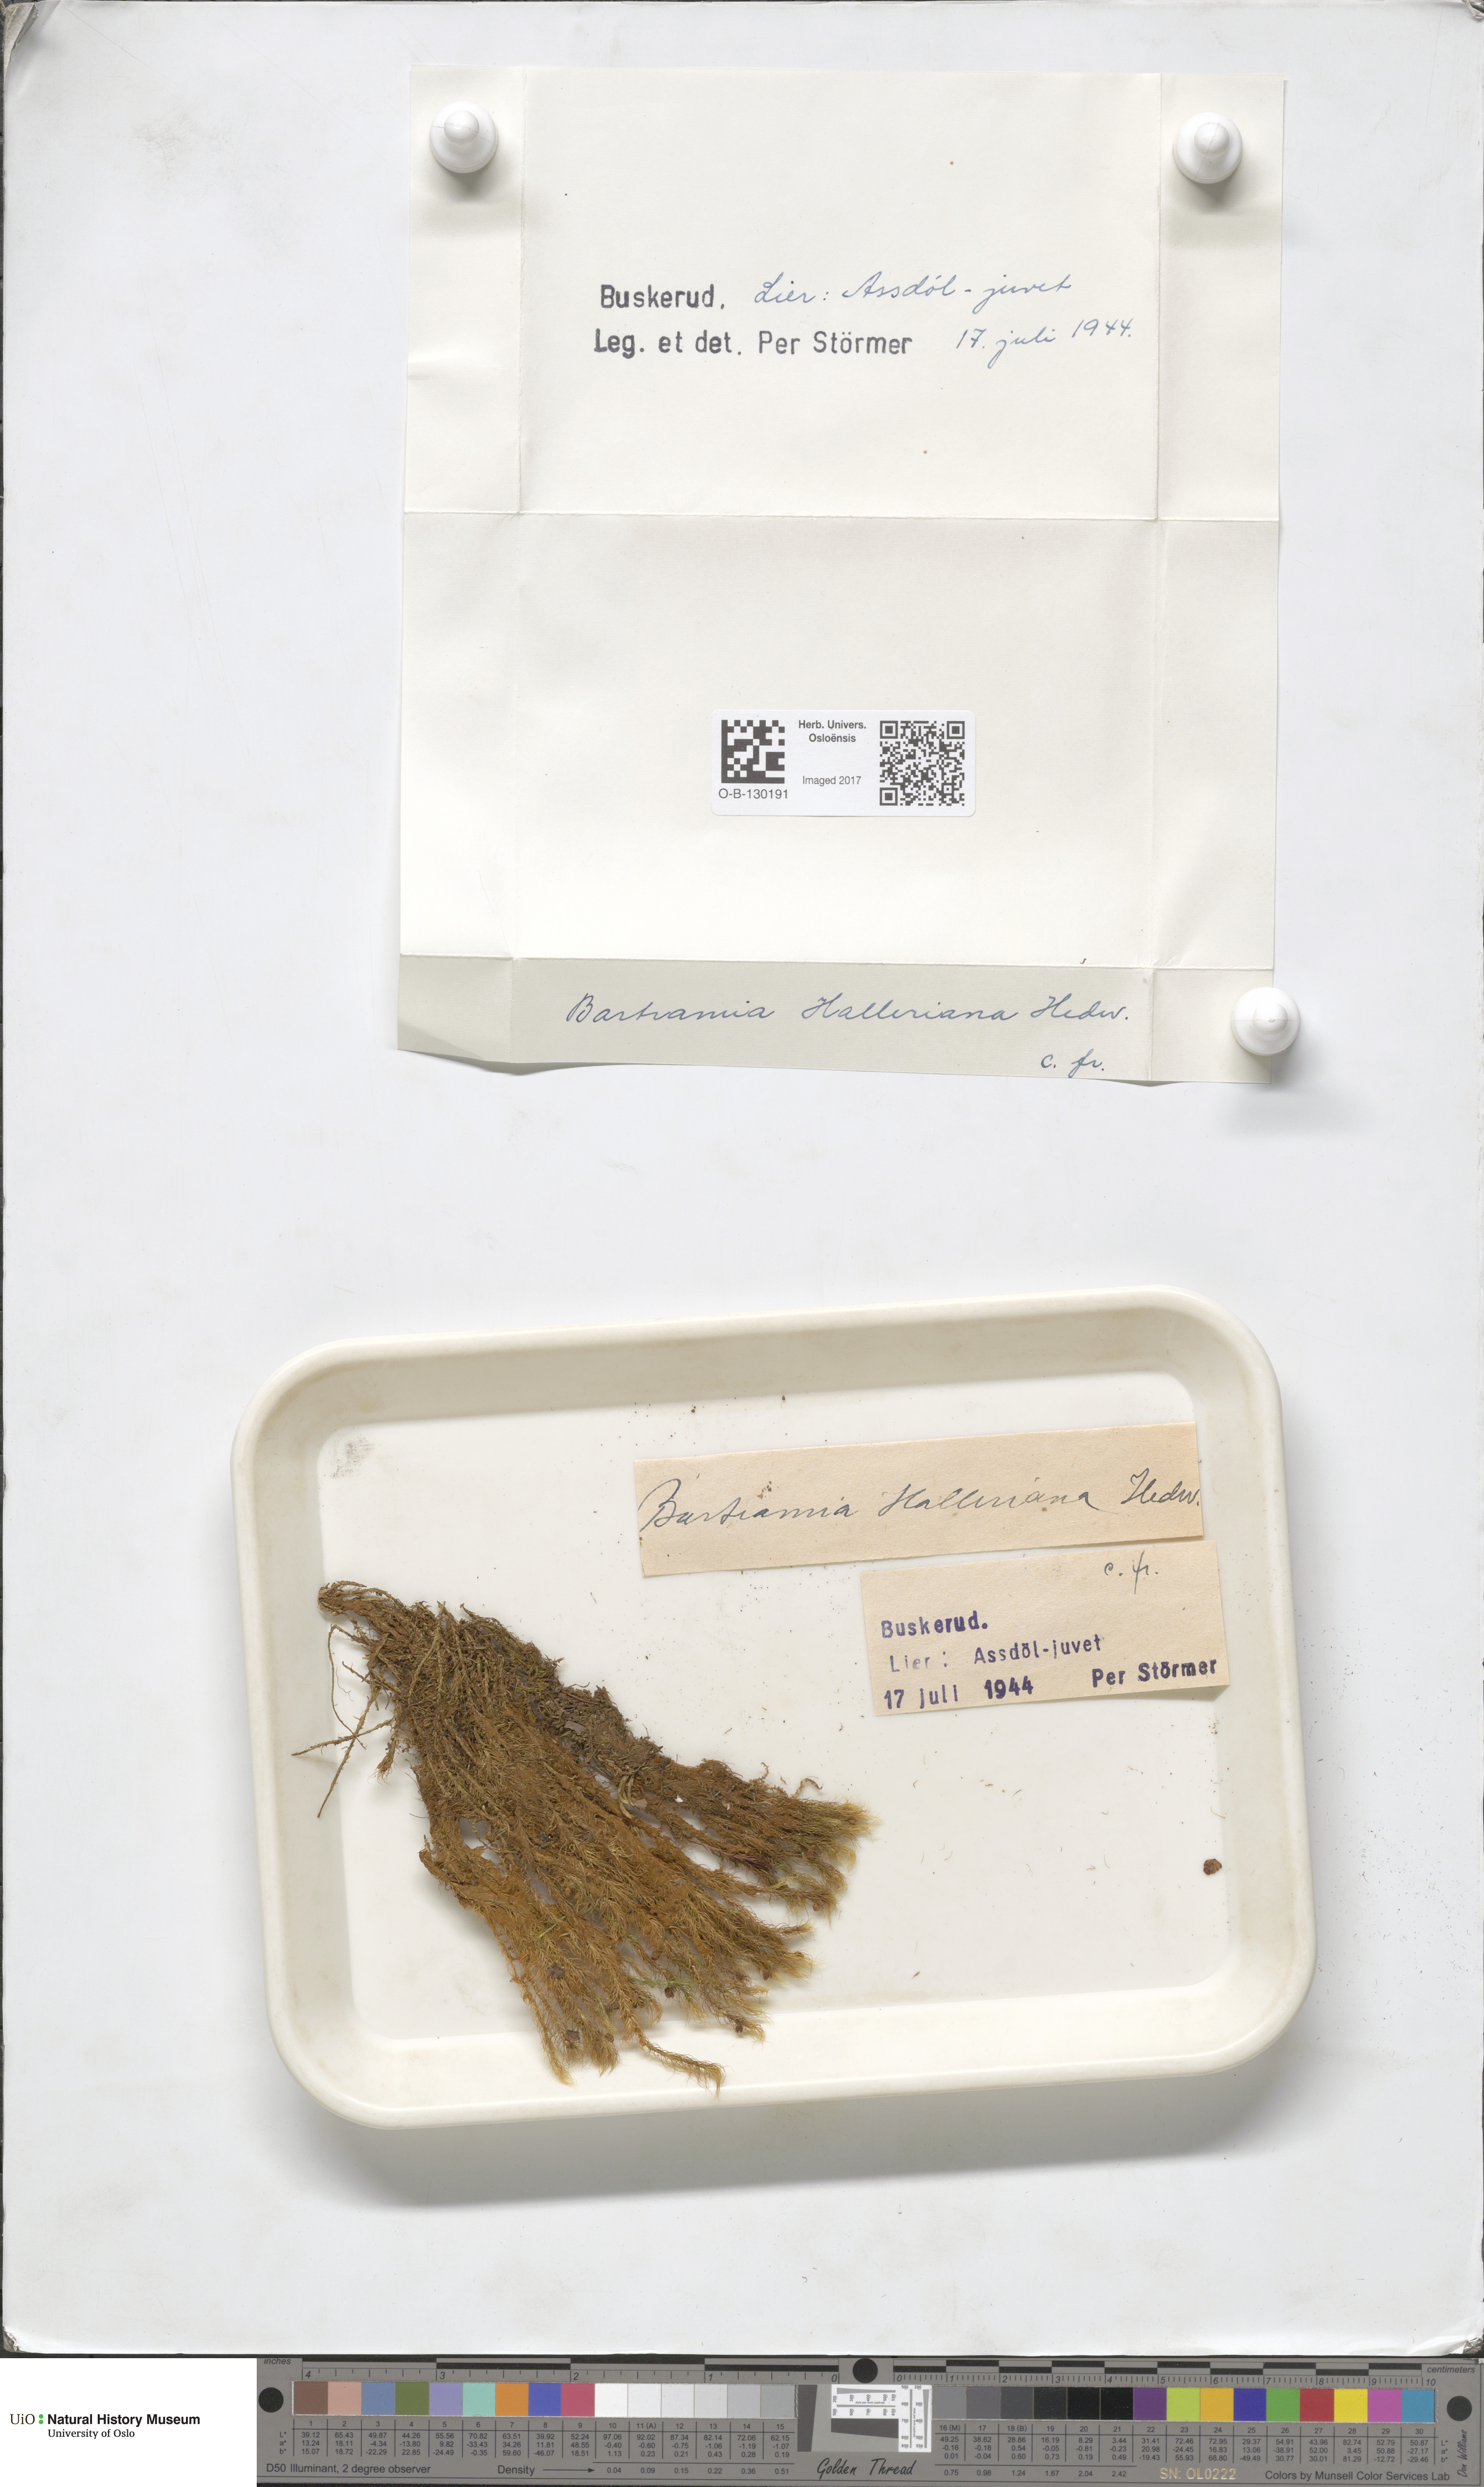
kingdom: Plantae
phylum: Bryophyta
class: Bryopsida
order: Bartramiales
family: Bartramiaceae
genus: Bartramia
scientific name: Bartramia halleriana
